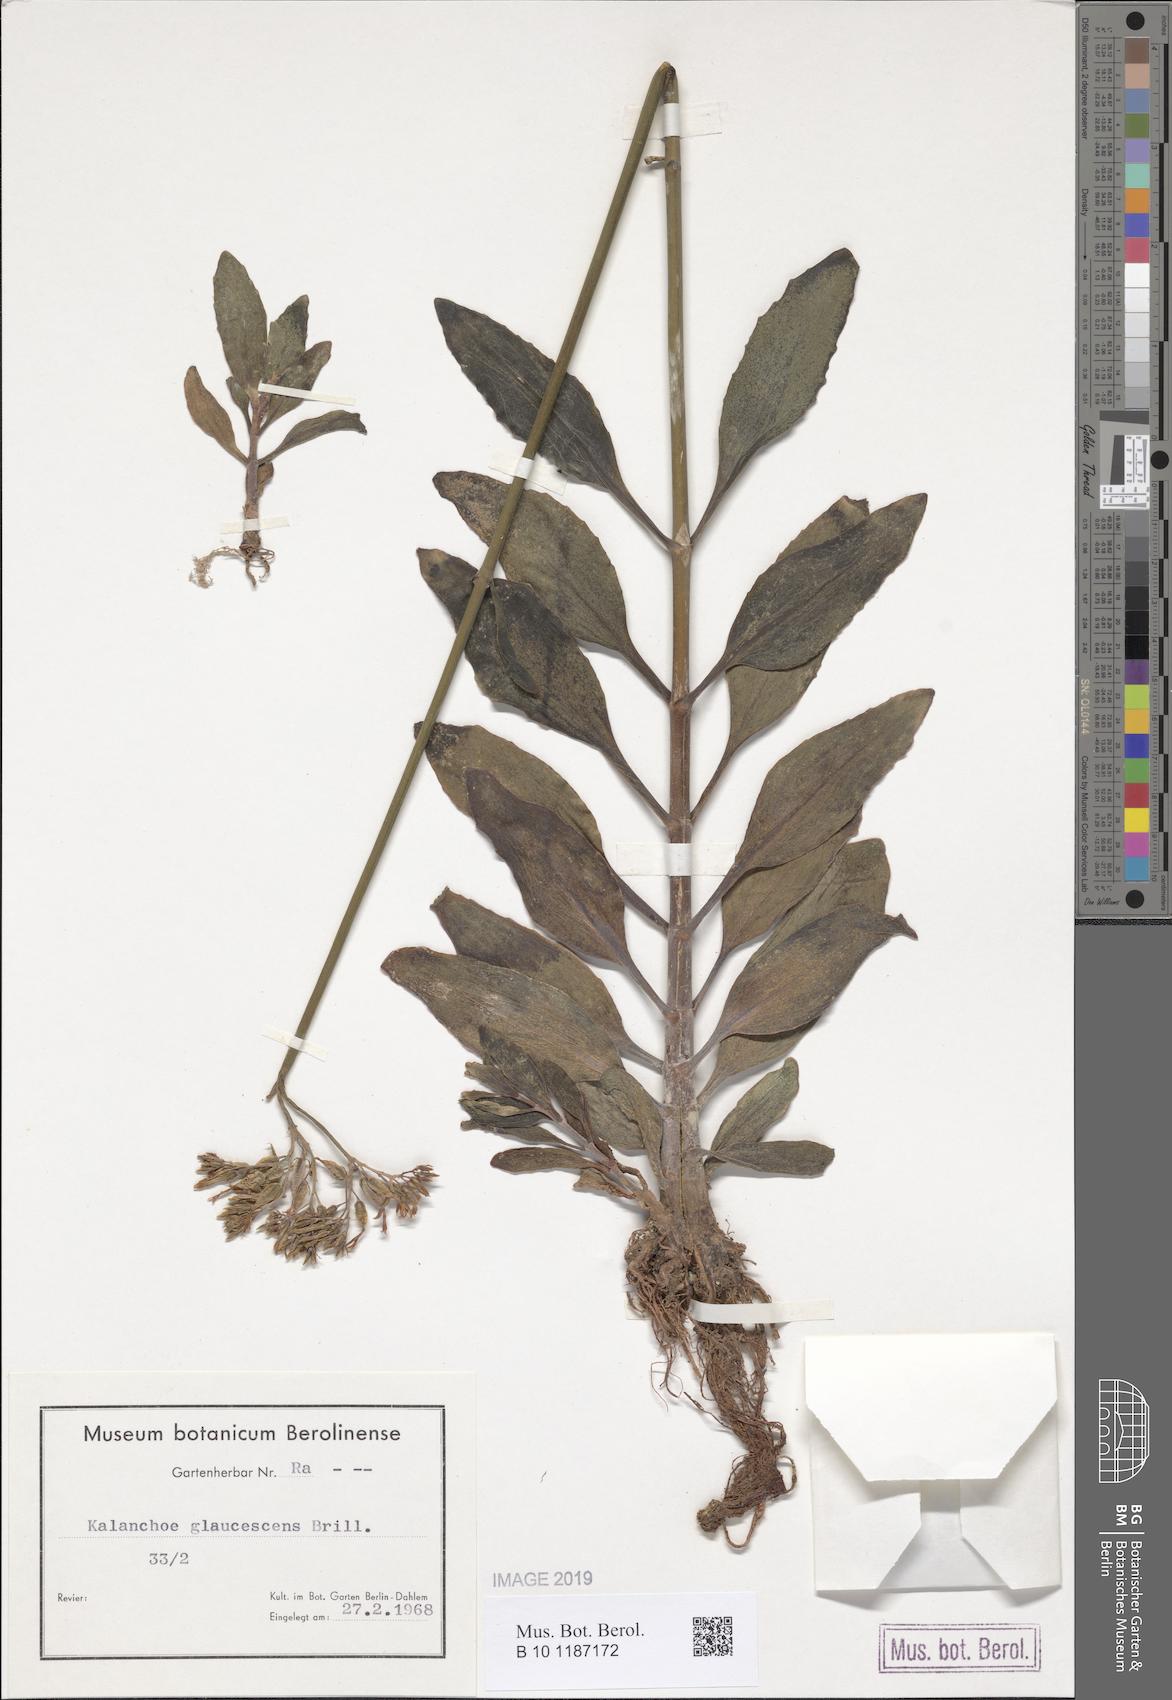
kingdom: Plantae
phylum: Tracheophyta
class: Magnoliopsida
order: Saxifragales
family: Crassulaceae
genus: Kalanchoe
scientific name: Kalanchoe glaucescens
